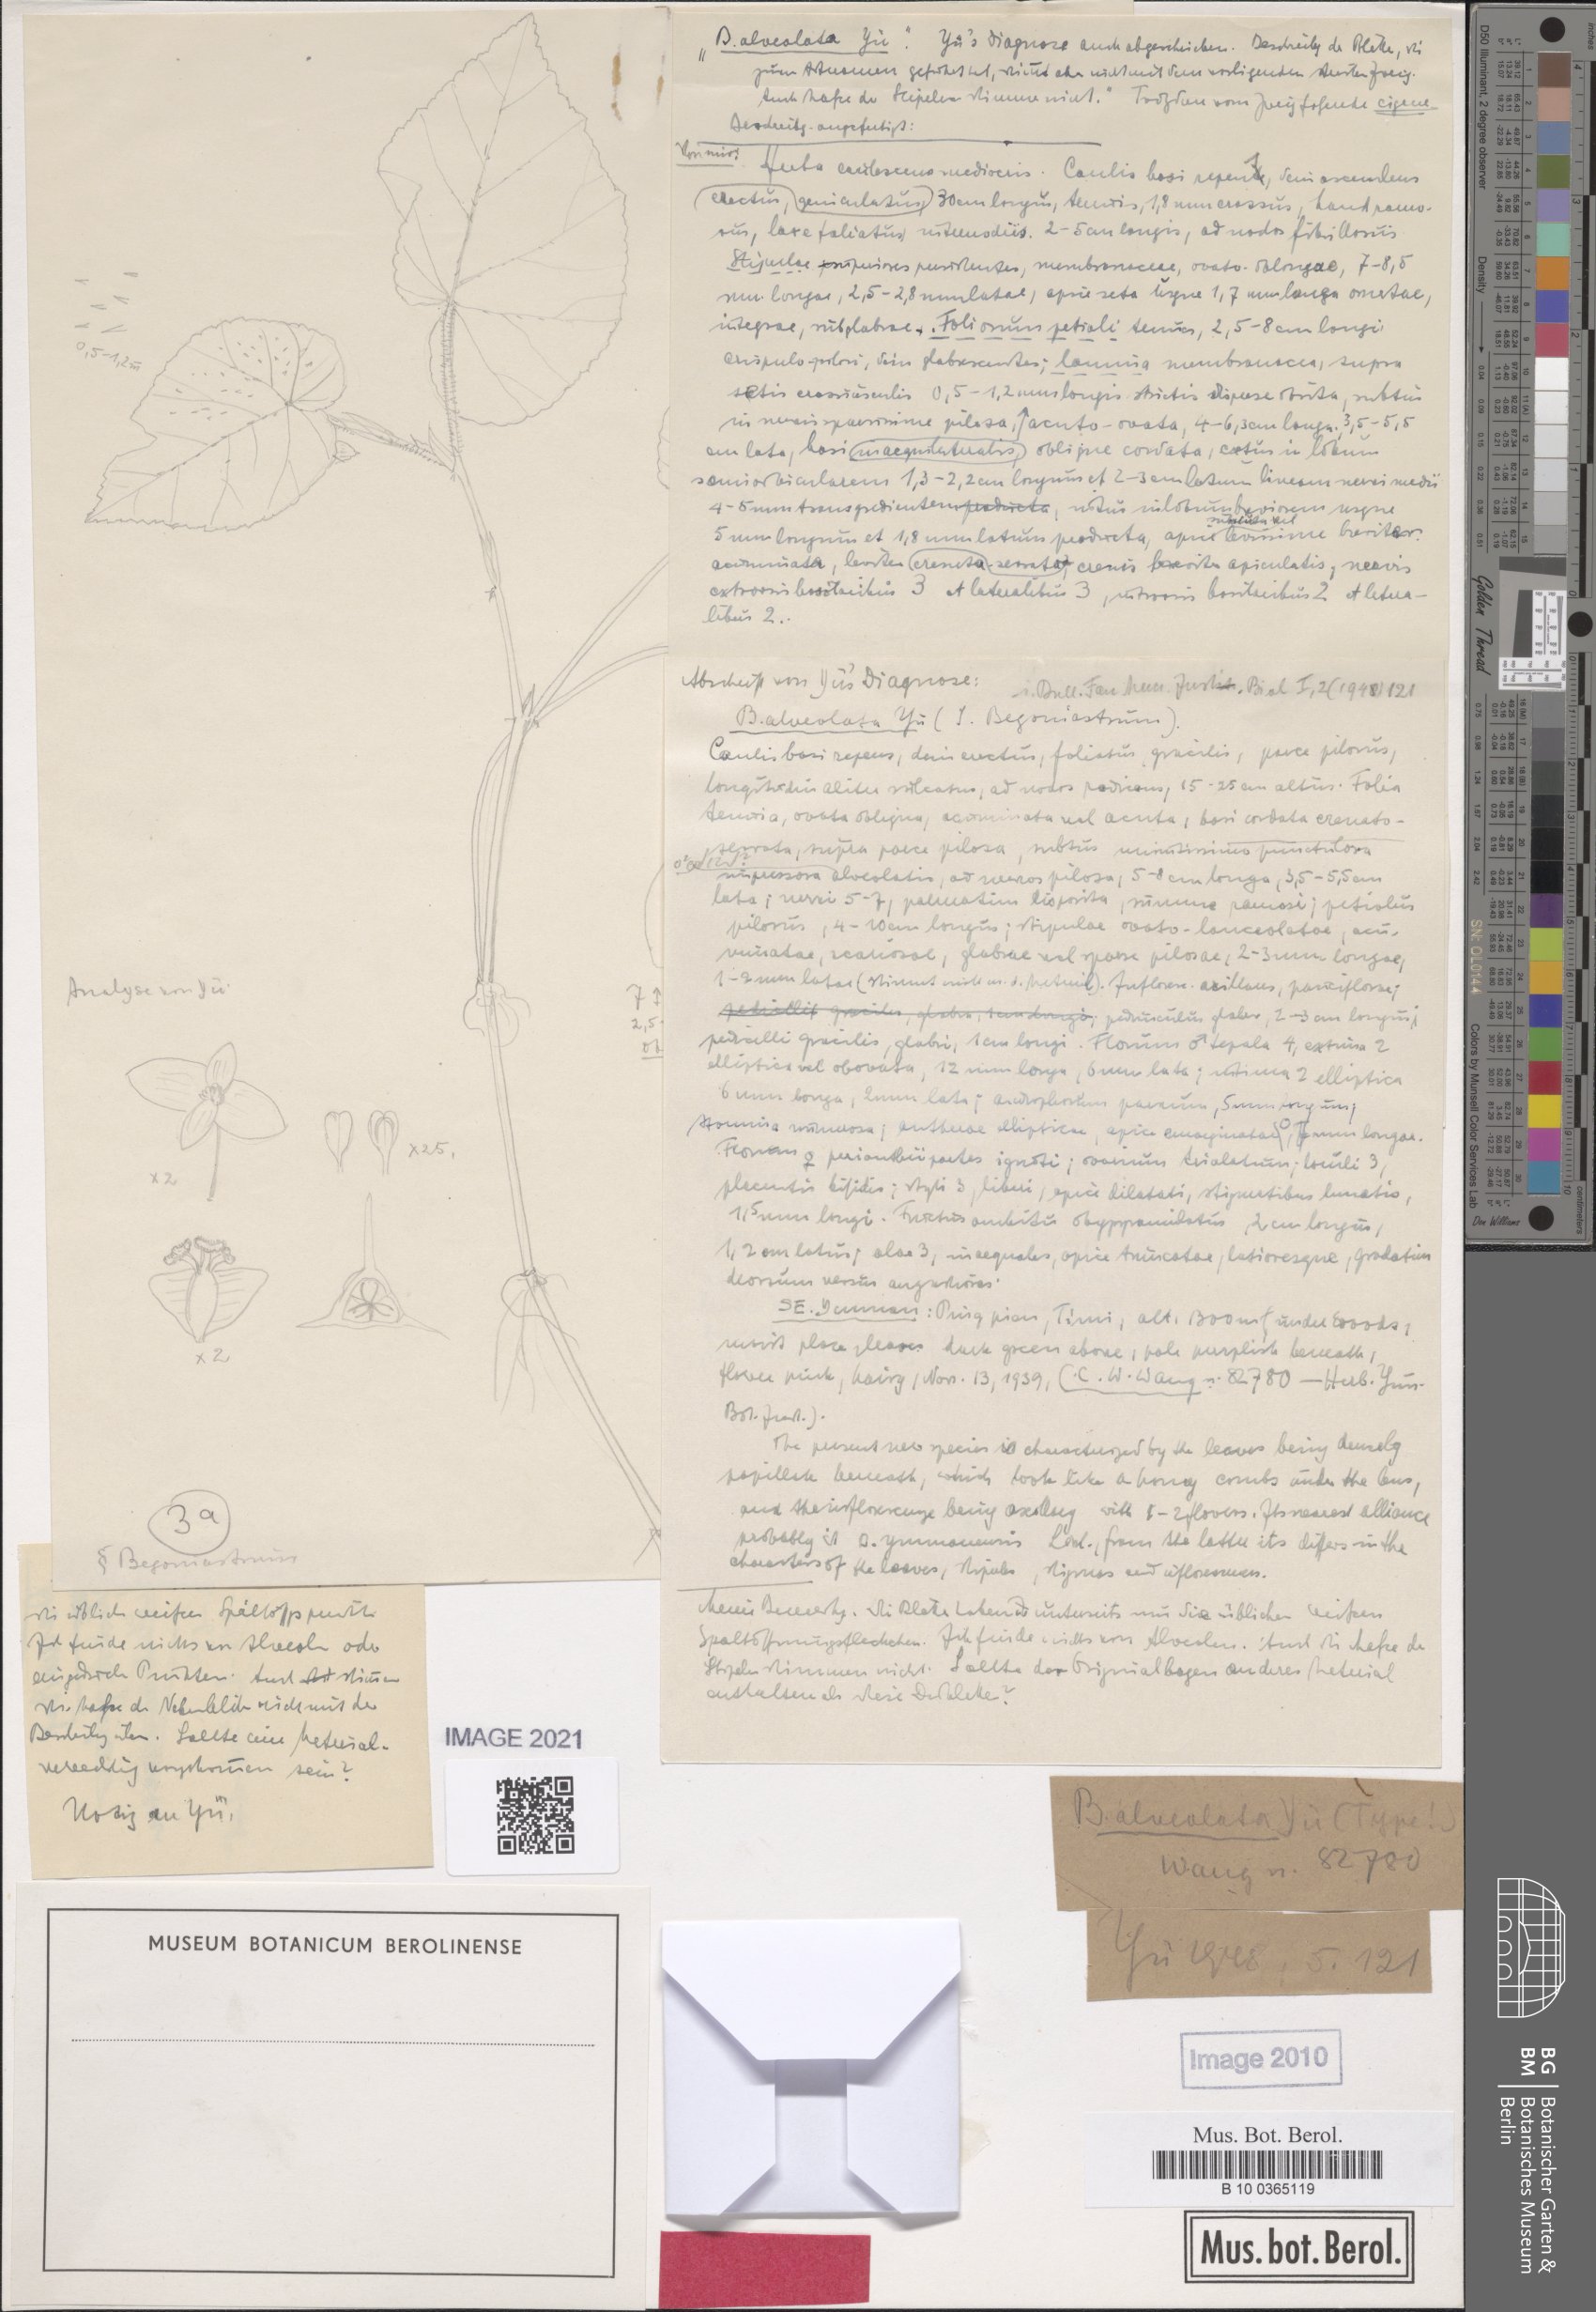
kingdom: Plantae
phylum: Tracheophyta
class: Magnoliopsida
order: Cucurbitales
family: Begoniaceae
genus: Begonia
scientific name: Begonia alveolata
